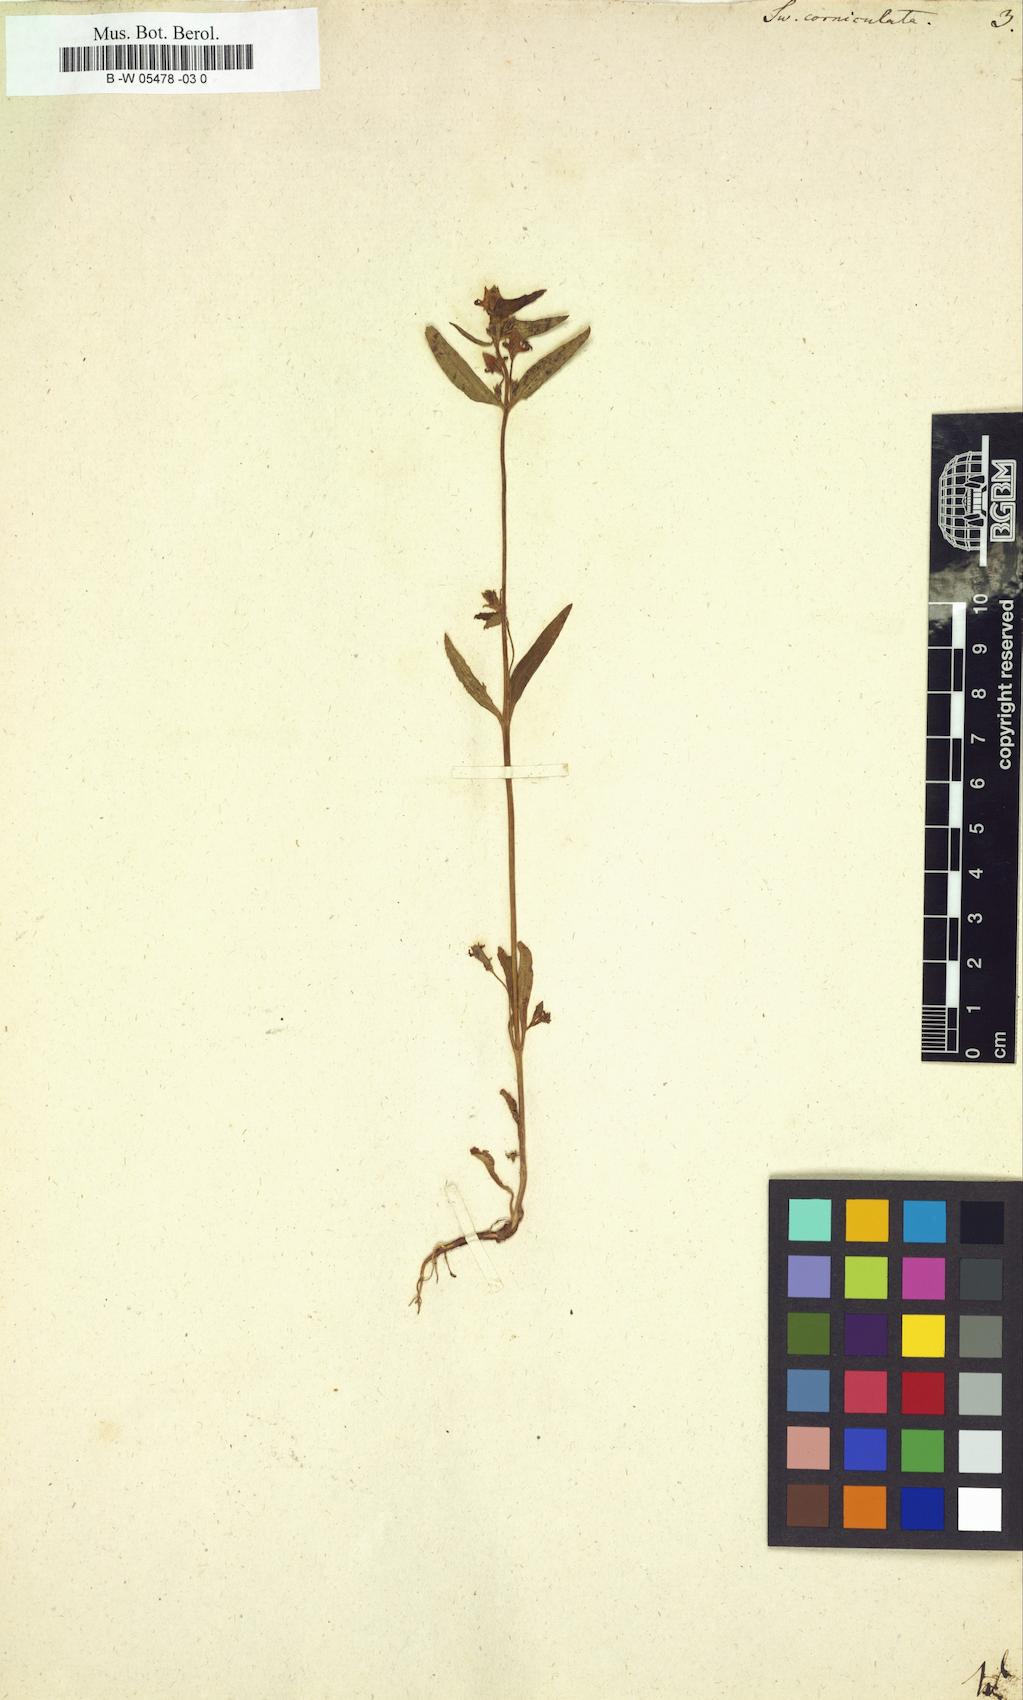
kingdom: Plantae
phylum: Tracheophyta
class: Magnoliopsida
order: Gentianales
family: Gentianaceae
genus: Halenia
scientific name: Halenia
